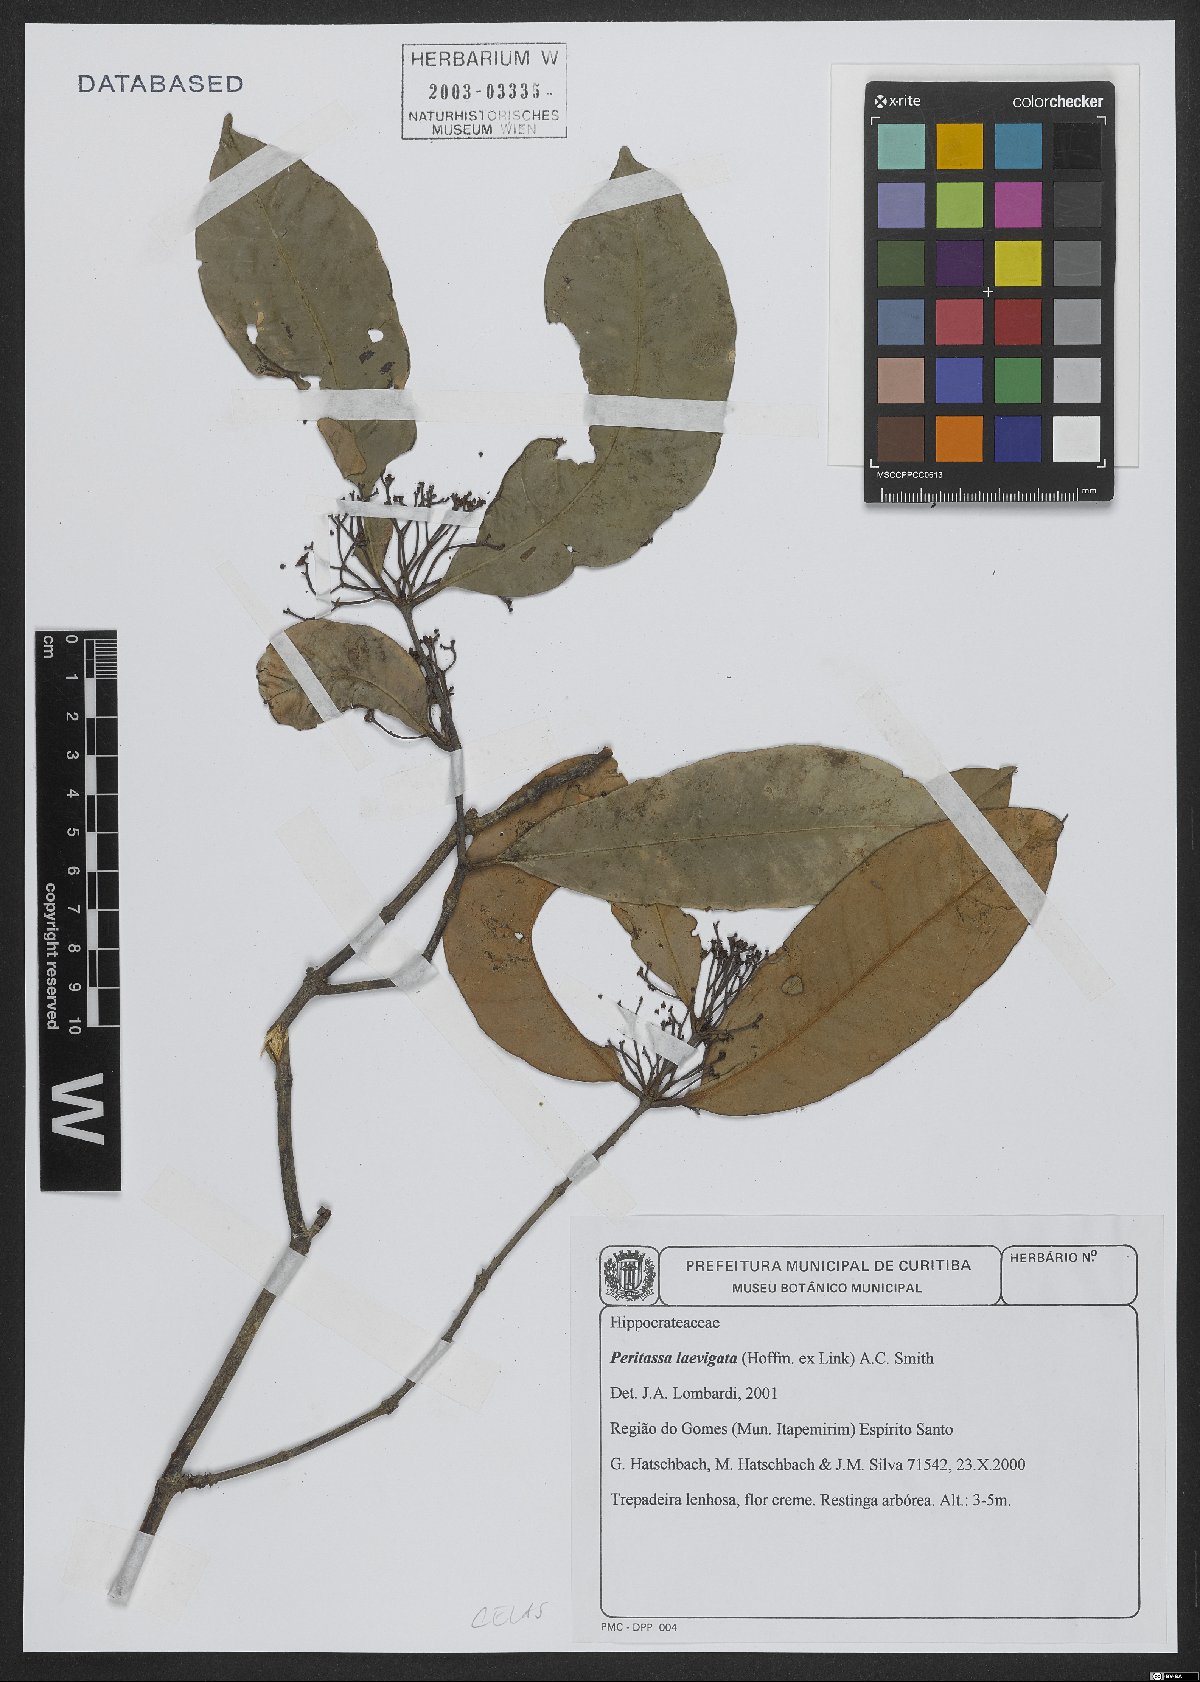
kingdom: Plantae
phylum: Tracheophyta
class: Magnoliopsida
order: Celastrales
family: Celastraceae
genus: Peritassa
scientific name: Peritassa laevigata
